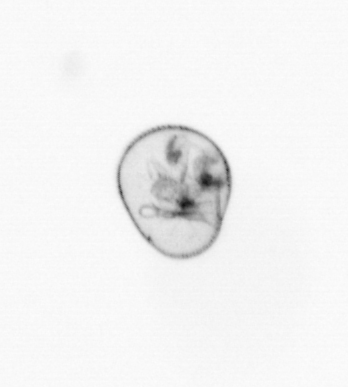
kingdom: Chromista
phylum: Myzozoa
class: Dinophyceae
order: Noctilucales
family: Noctilucaceae
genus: Noctiluca
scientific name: Noctiluca scintillans
